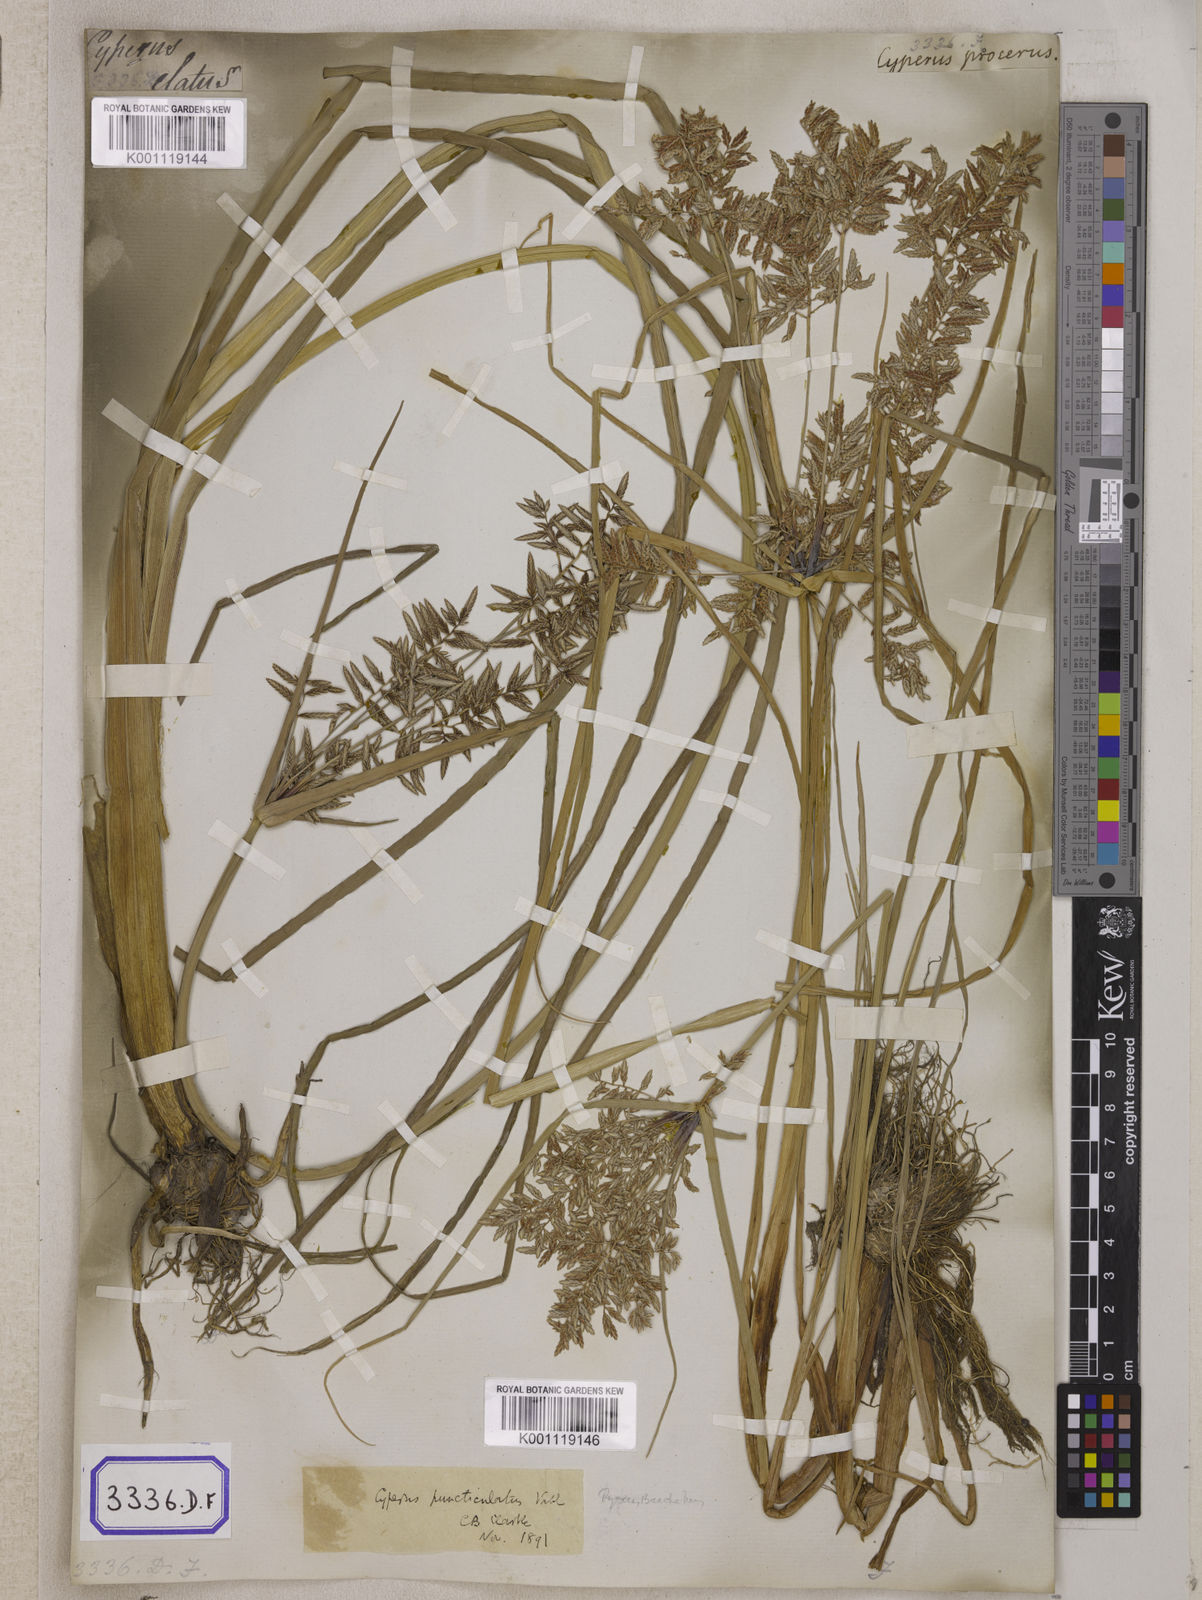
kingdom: Plantae
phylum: Tracheophyta
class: Liliopsida
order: Poales
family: Cyperaceae
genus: Cyperus
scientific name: Cyperus
